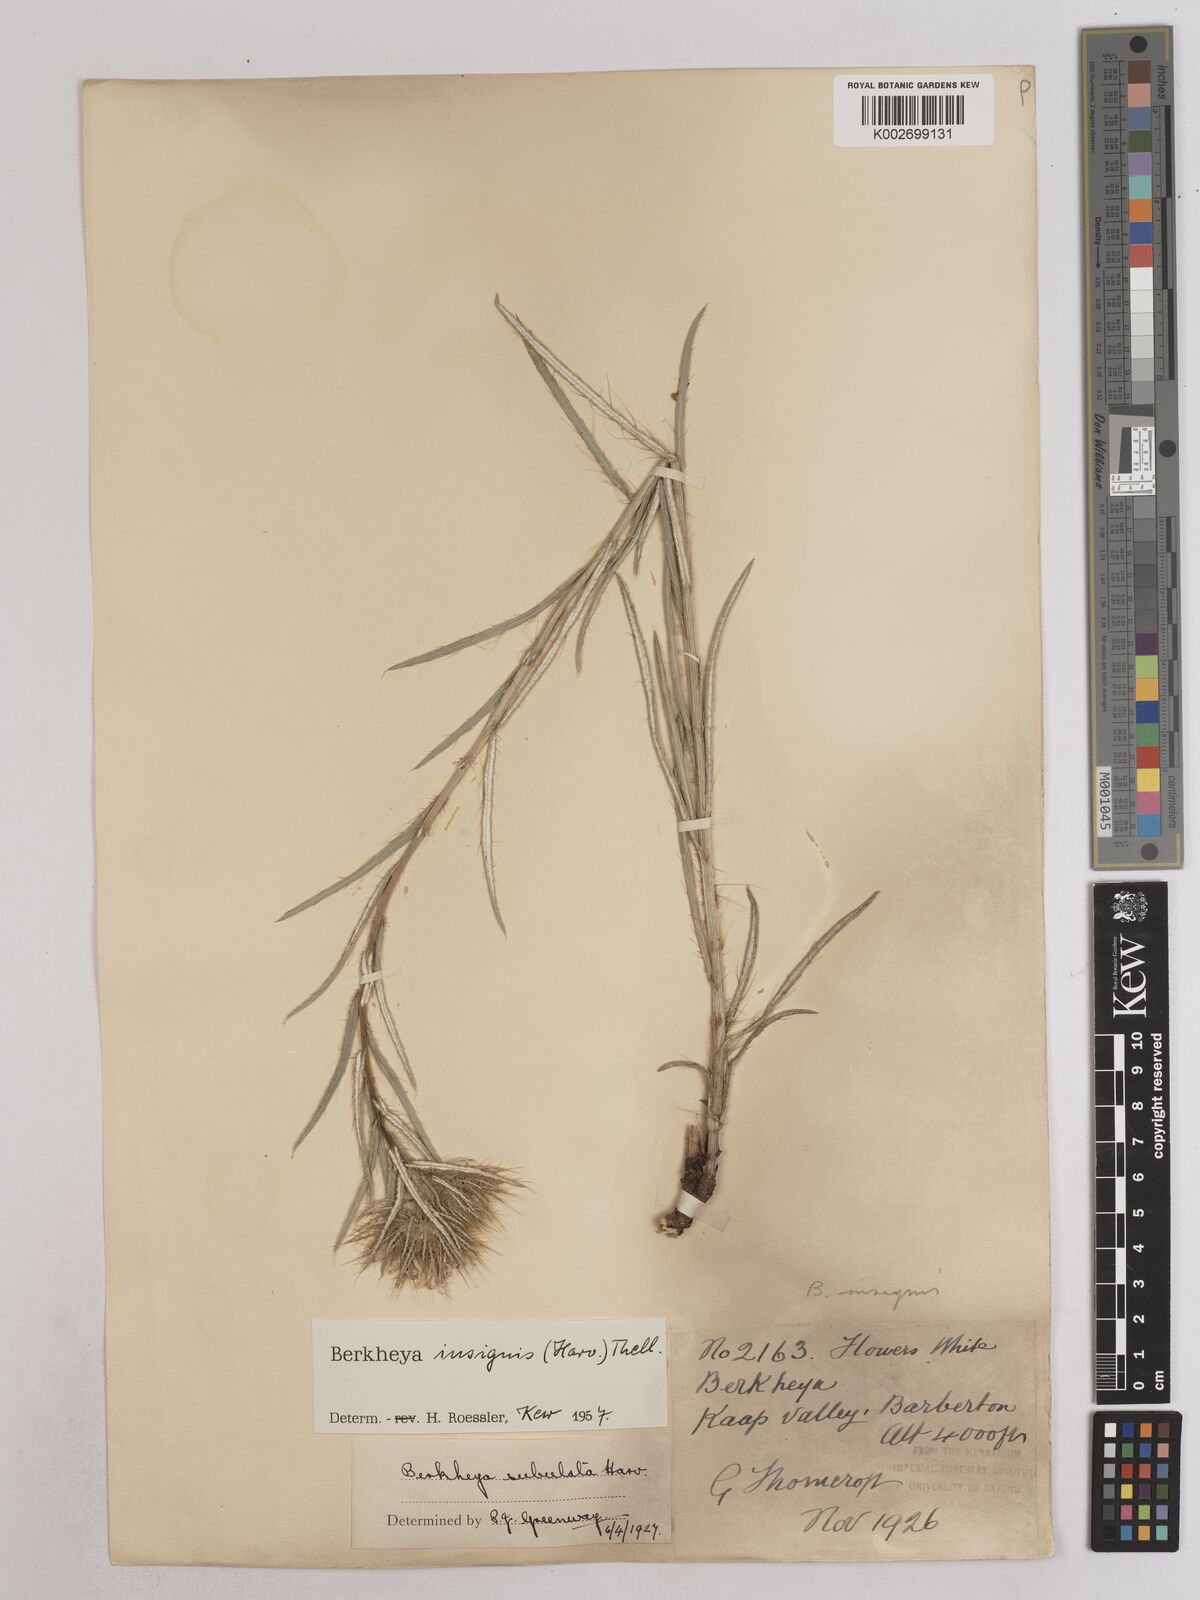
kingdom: Plantae
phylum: Tracheophyta
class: Magnoliopsida
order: Asterales
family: Asteraceae
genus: Berkheya
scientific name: Berkheya insignis
